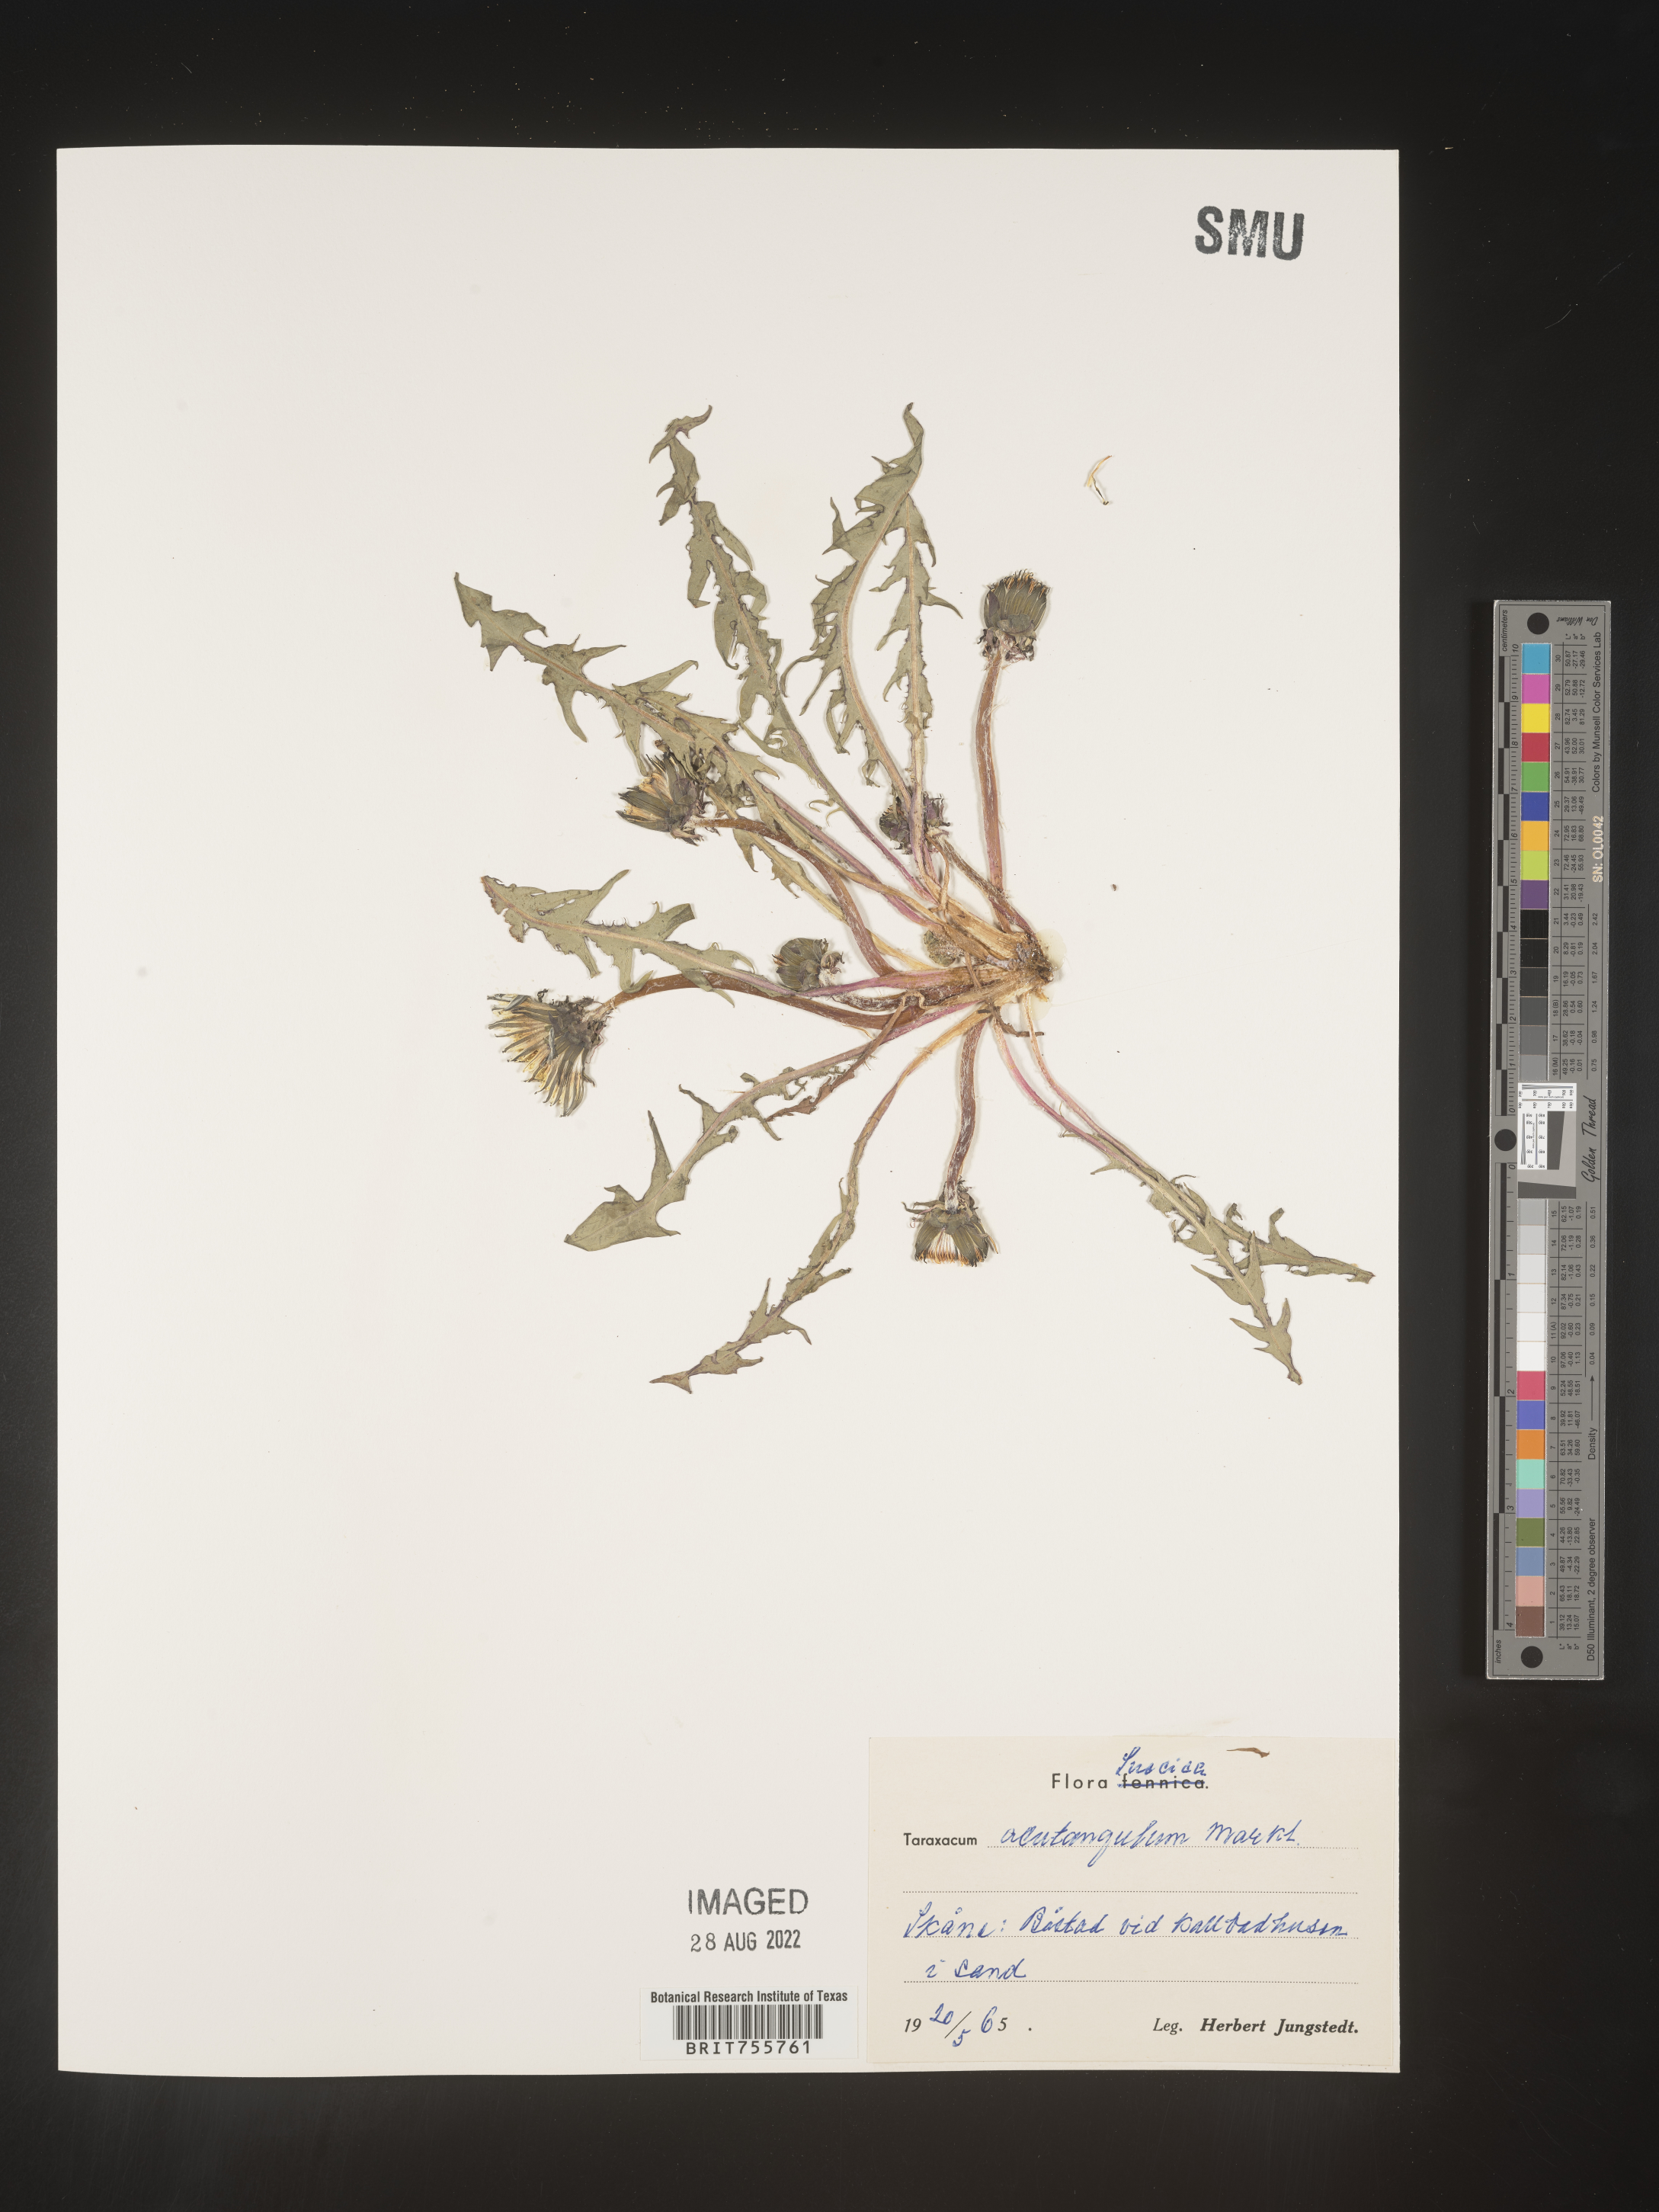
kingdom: Plantae
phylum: Tracheophyta
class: Magnoliopsida
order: Asterales
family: Asteraceae
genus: Taraxacum
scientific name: Taraxacum
